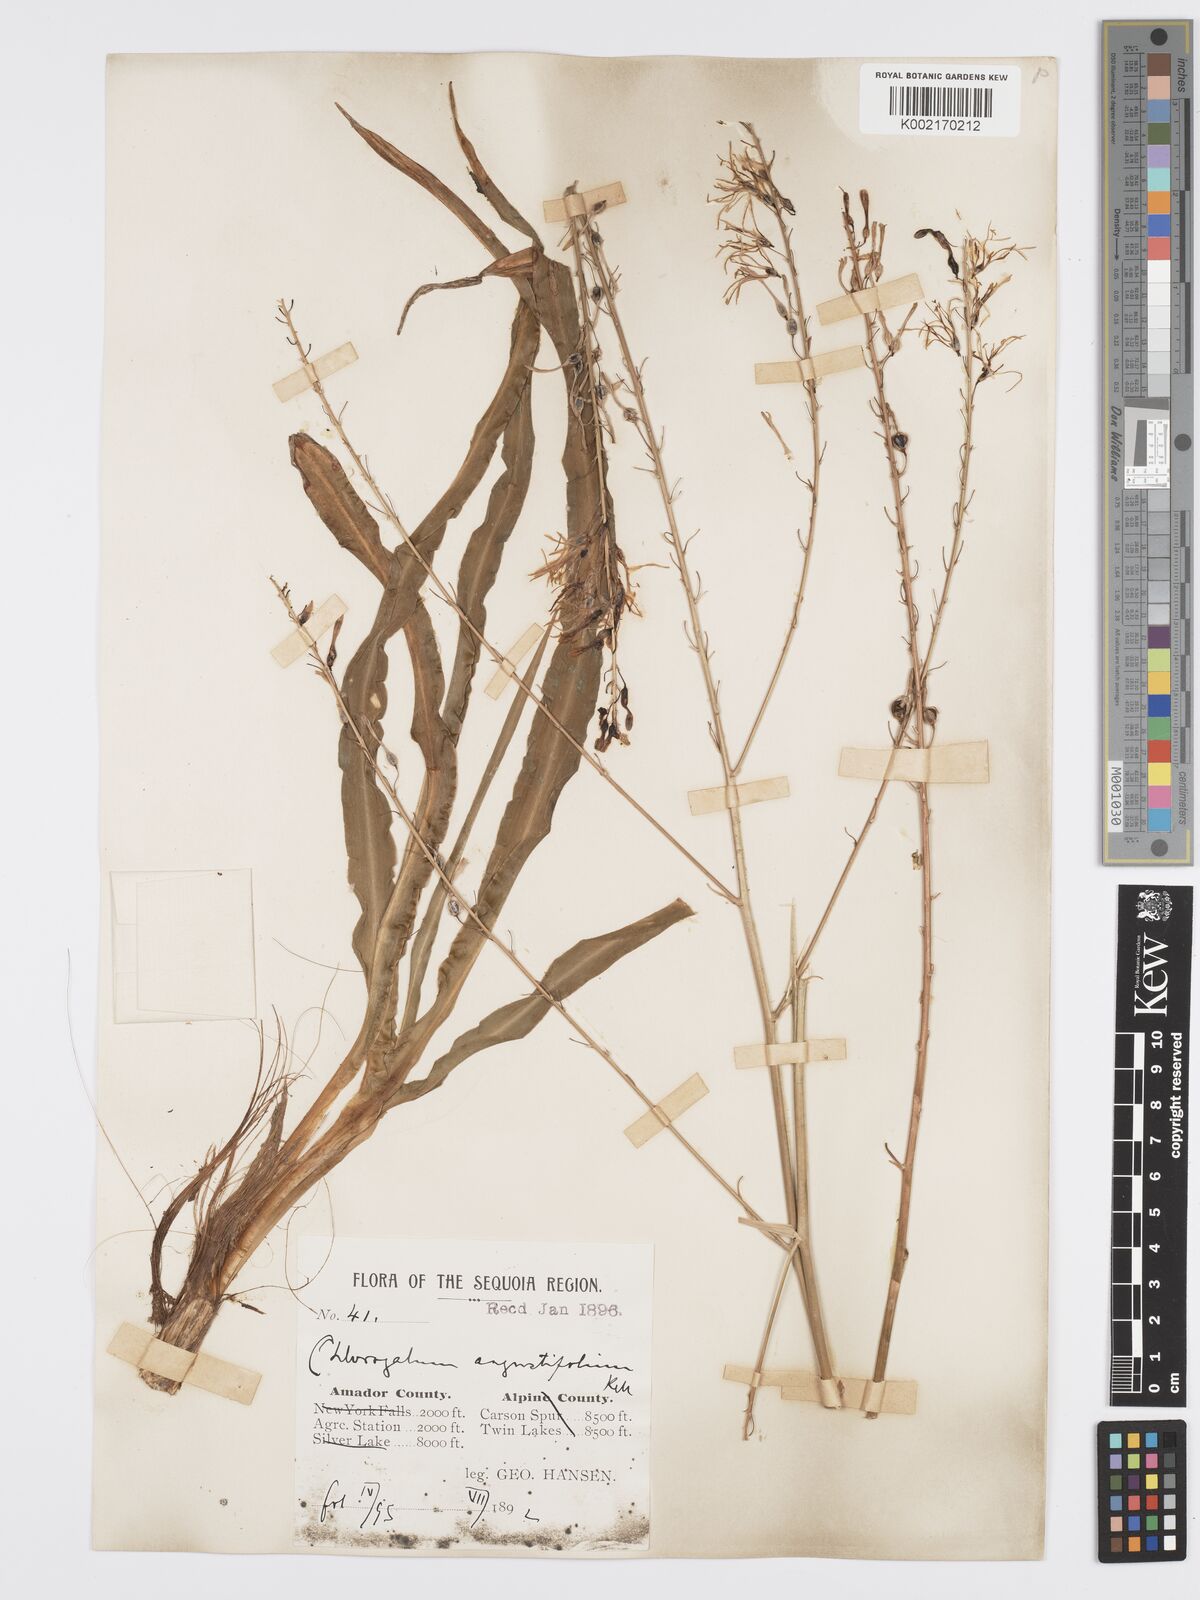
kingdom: Plantae
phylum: Tracheophyta
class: Liliopsida
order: Asparagales
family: Asparagaceae
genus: Chlorogalum
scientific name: Chlorogalum angustifolium
